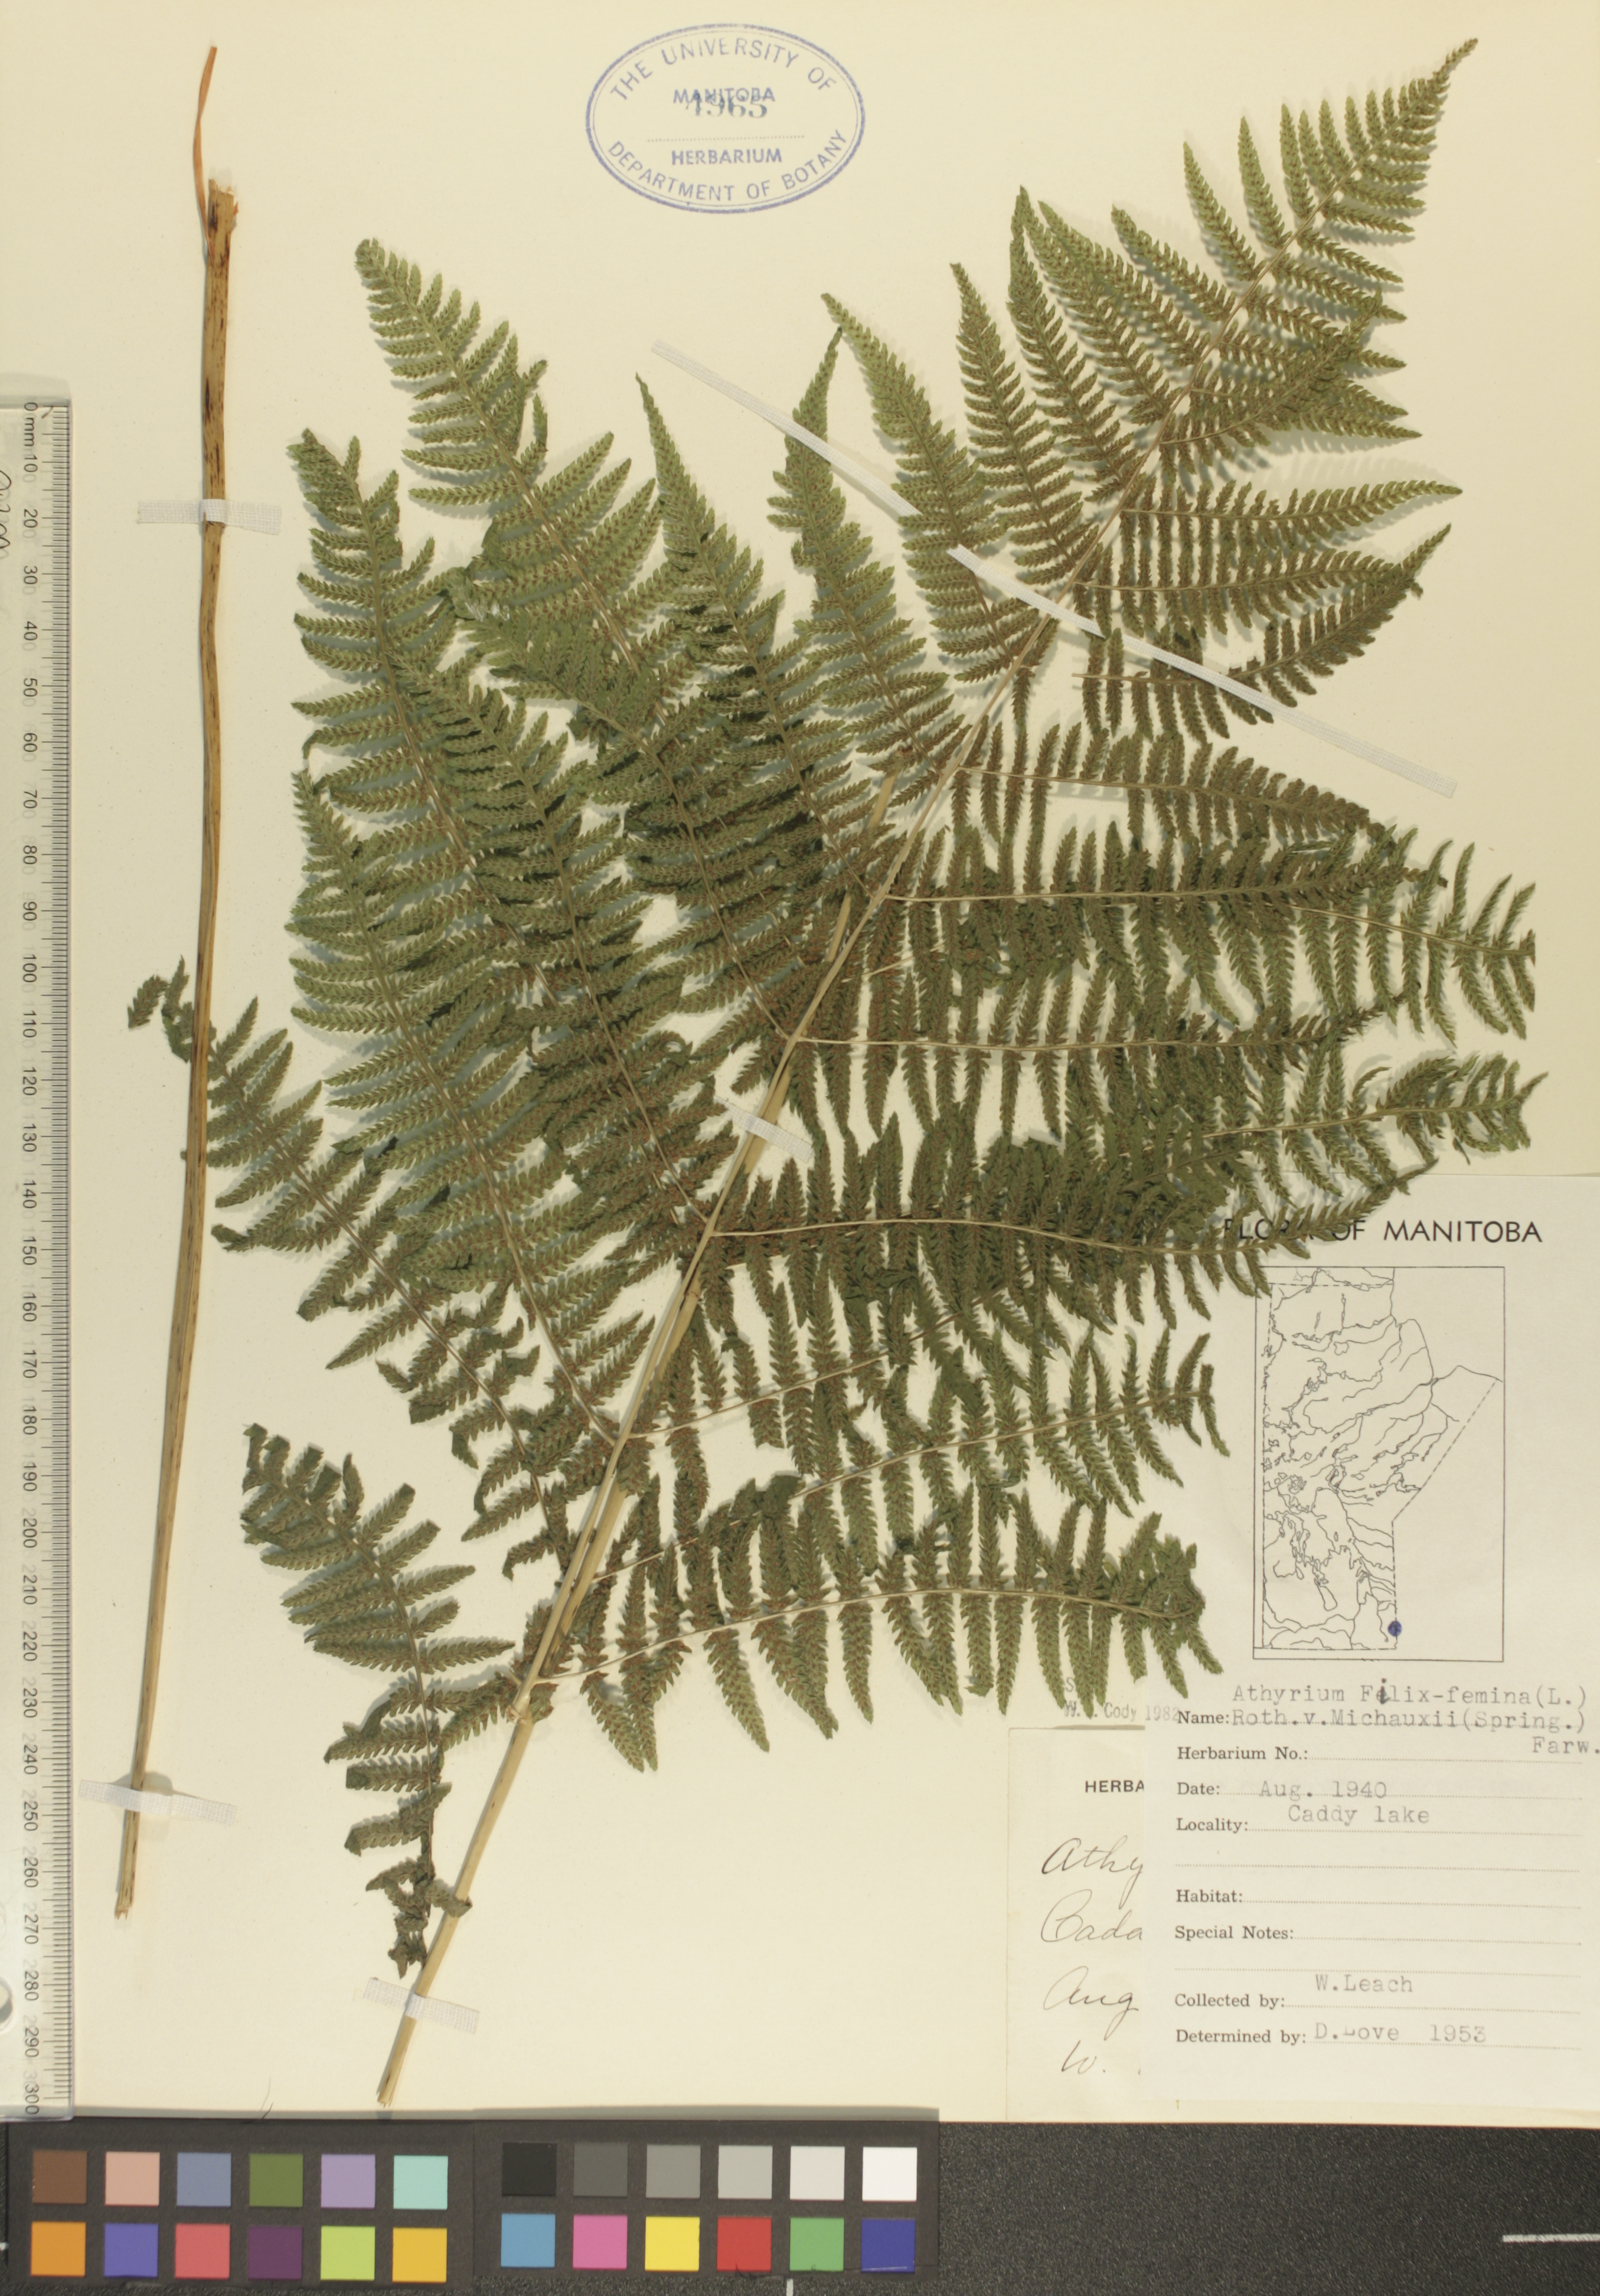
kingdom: Plantae
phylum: Tracheophyta
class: Polypodiopsida
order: Polypodiales
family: Athyriaceae
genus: Athyrium
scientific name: Athyrium angustum
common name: Northern lady fern
